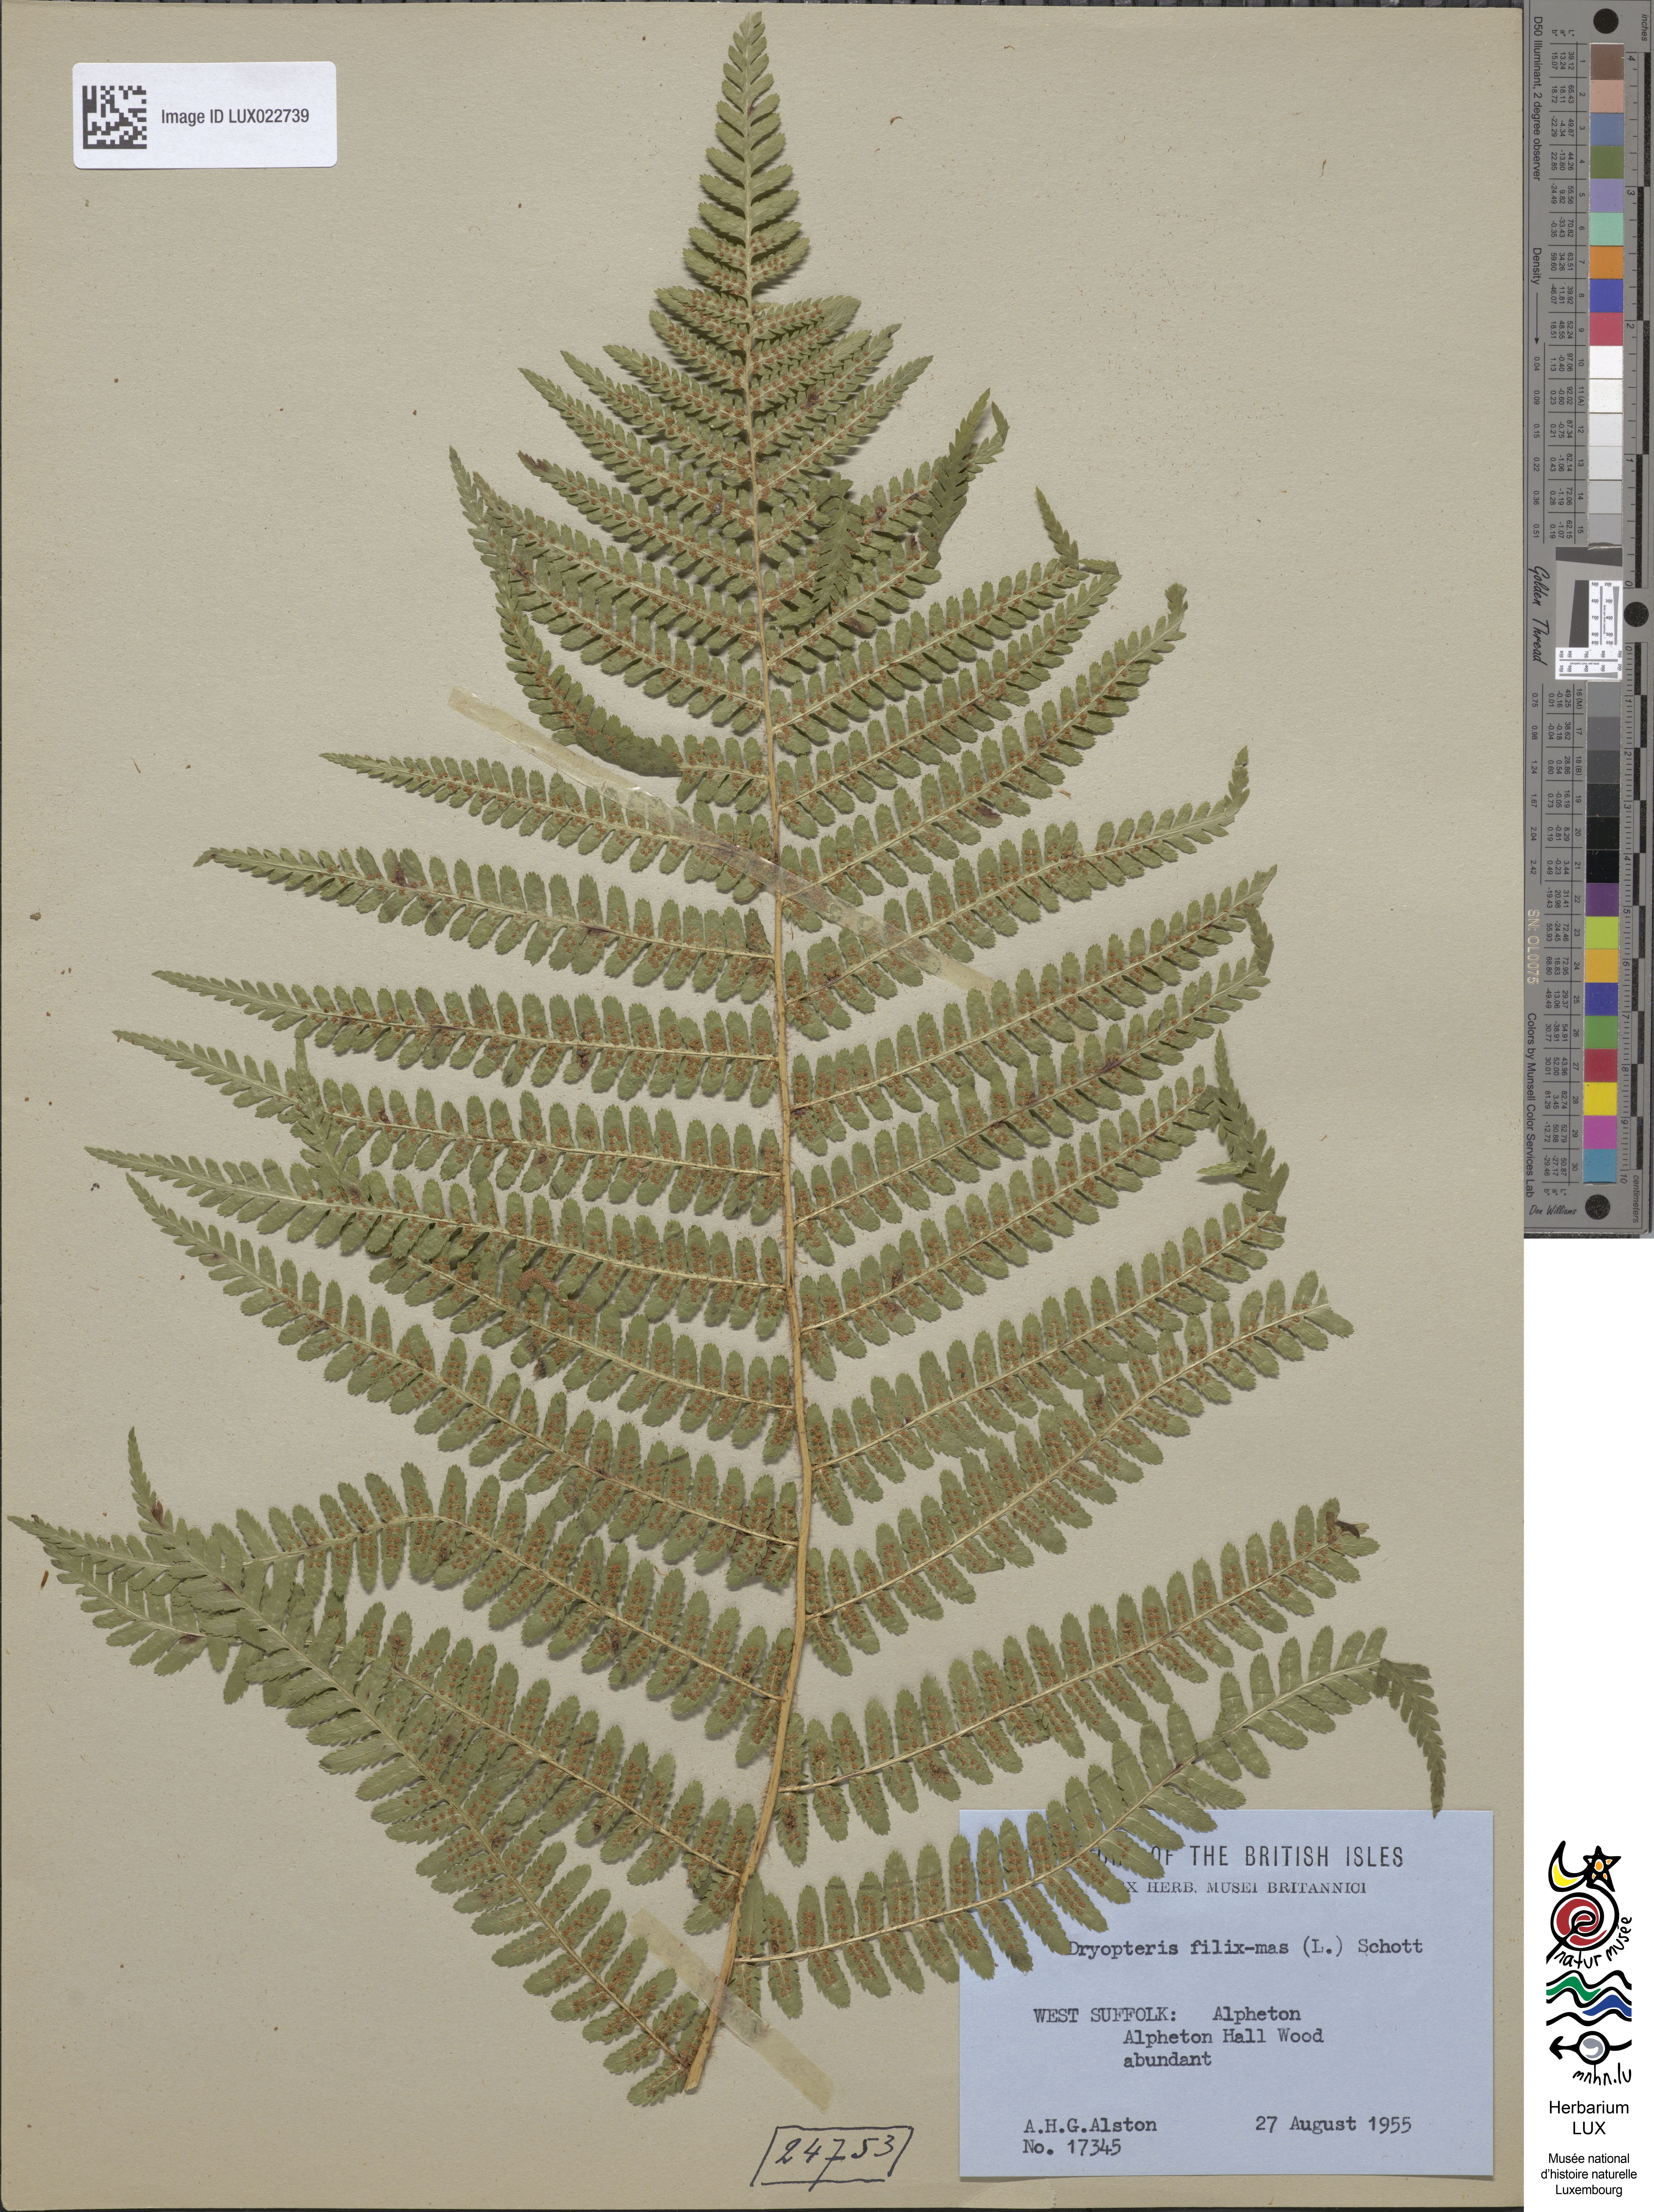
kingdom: Plantae
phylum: Tracheophyta
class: Polypodiopsida
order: Polypodiales
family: Dryopteridaceae
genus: Dryopteris
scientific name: Dryopteris filix-mas
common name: Male fern
